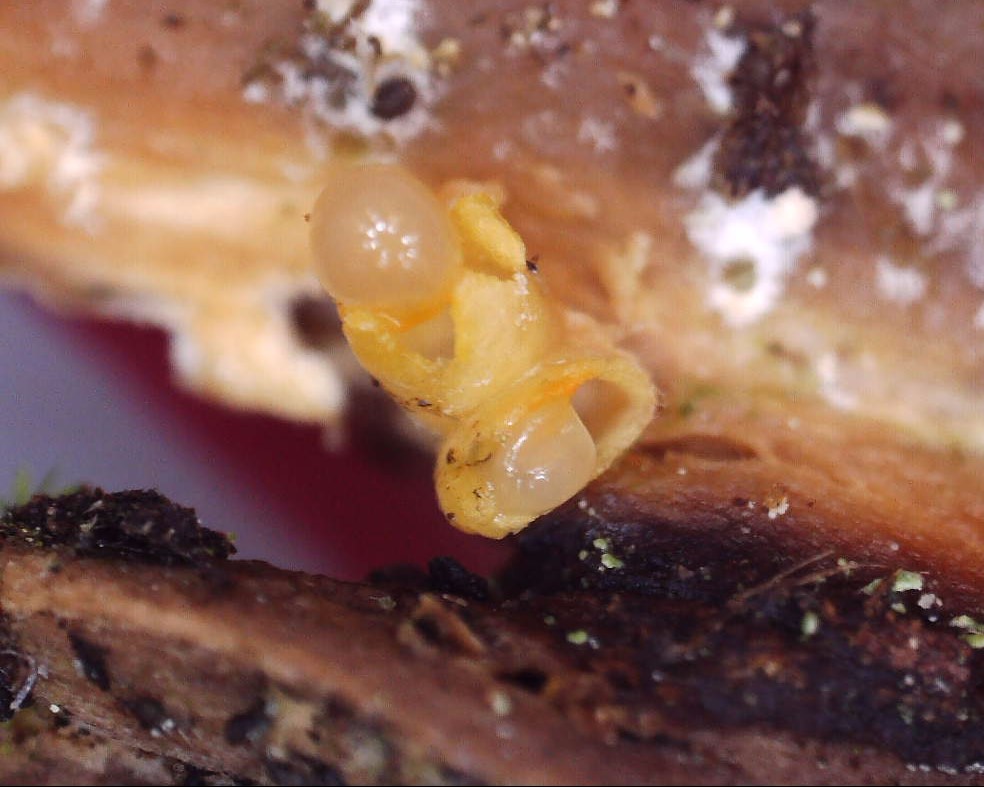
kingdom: Fungi
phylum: Basidiomycota
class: Agaricomycetes
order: Geastrales
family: Geastraceae
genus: Sphaerobolus
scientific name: Sphaerobolus stellatus
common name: bombekaster
